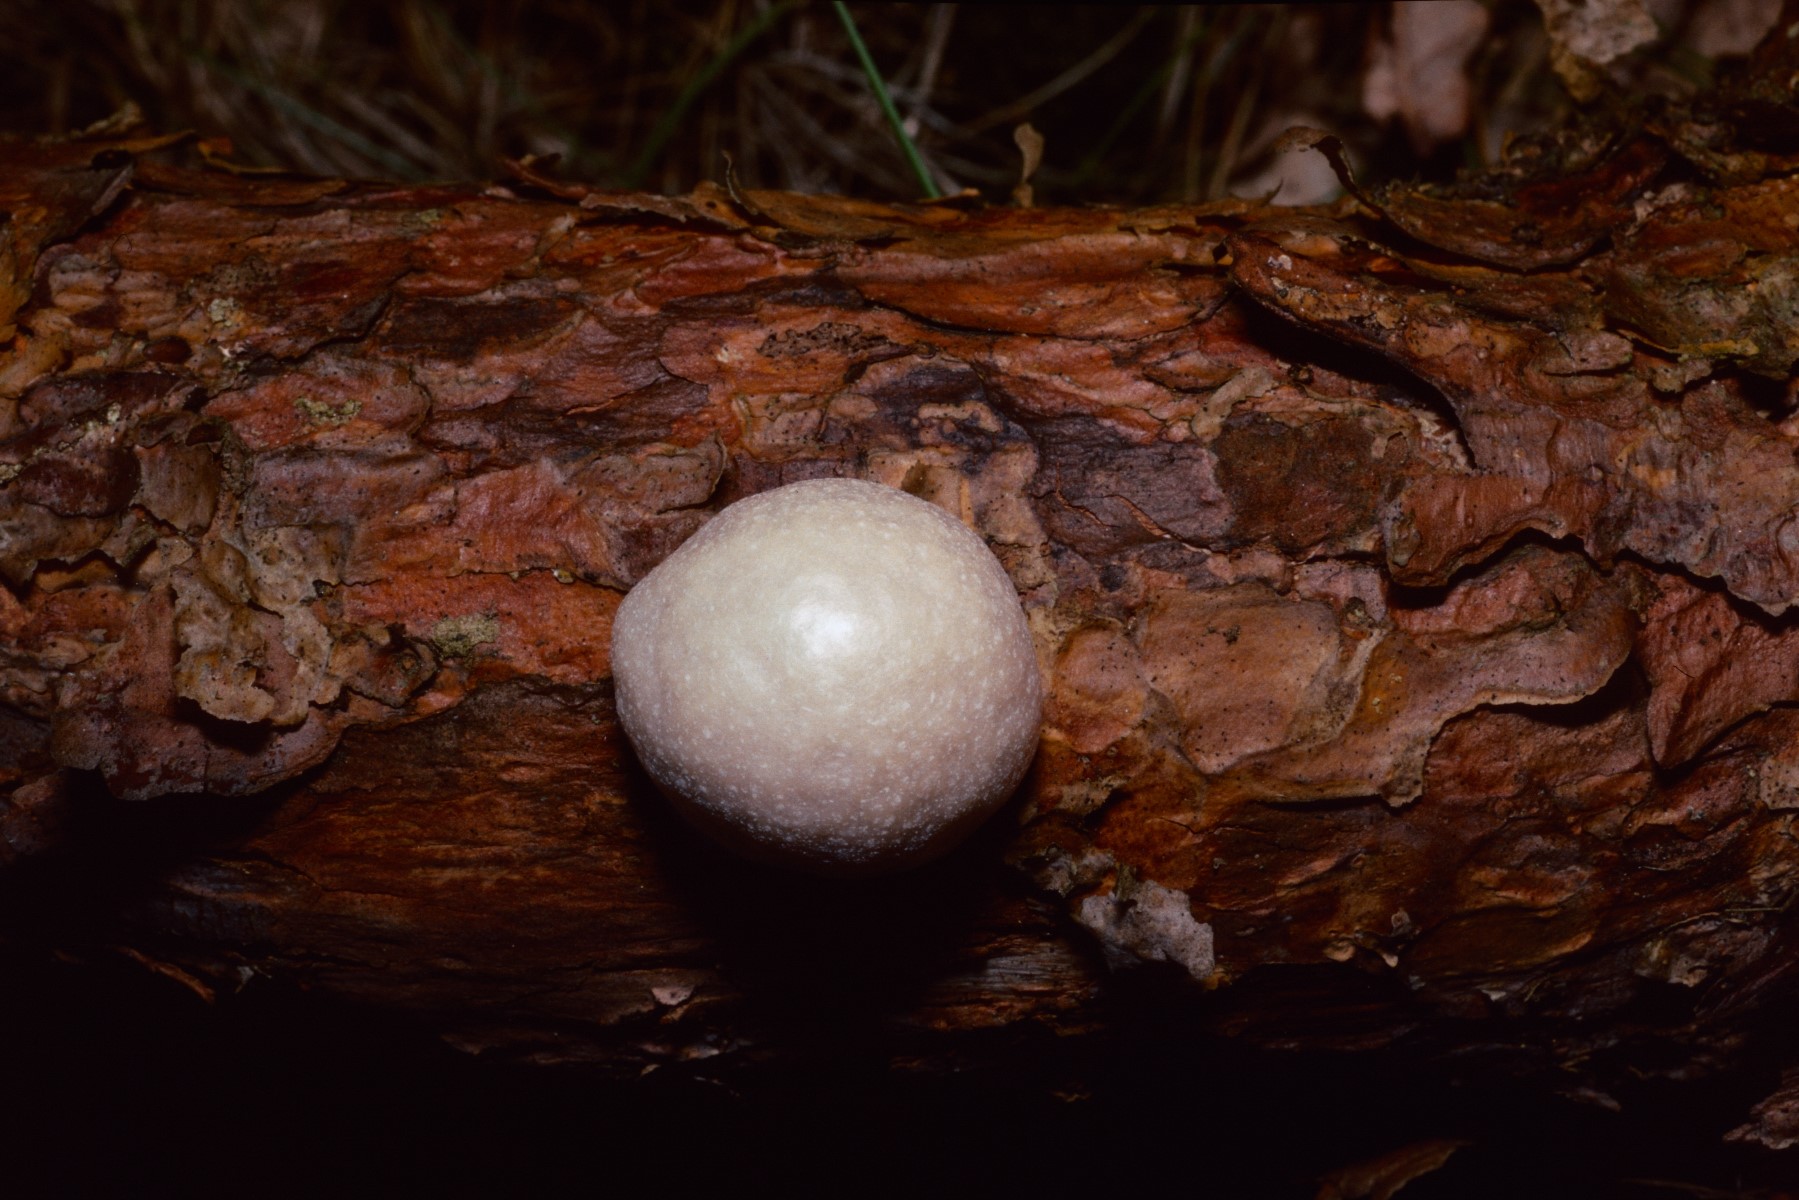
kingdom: Protozoa
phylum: Mycetozoa
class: Myxomycetes
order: Cribrariales
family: Tubiferaceae
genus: Reticularia
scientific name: Reticularia lycoperdon
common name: skinnende støvpude
